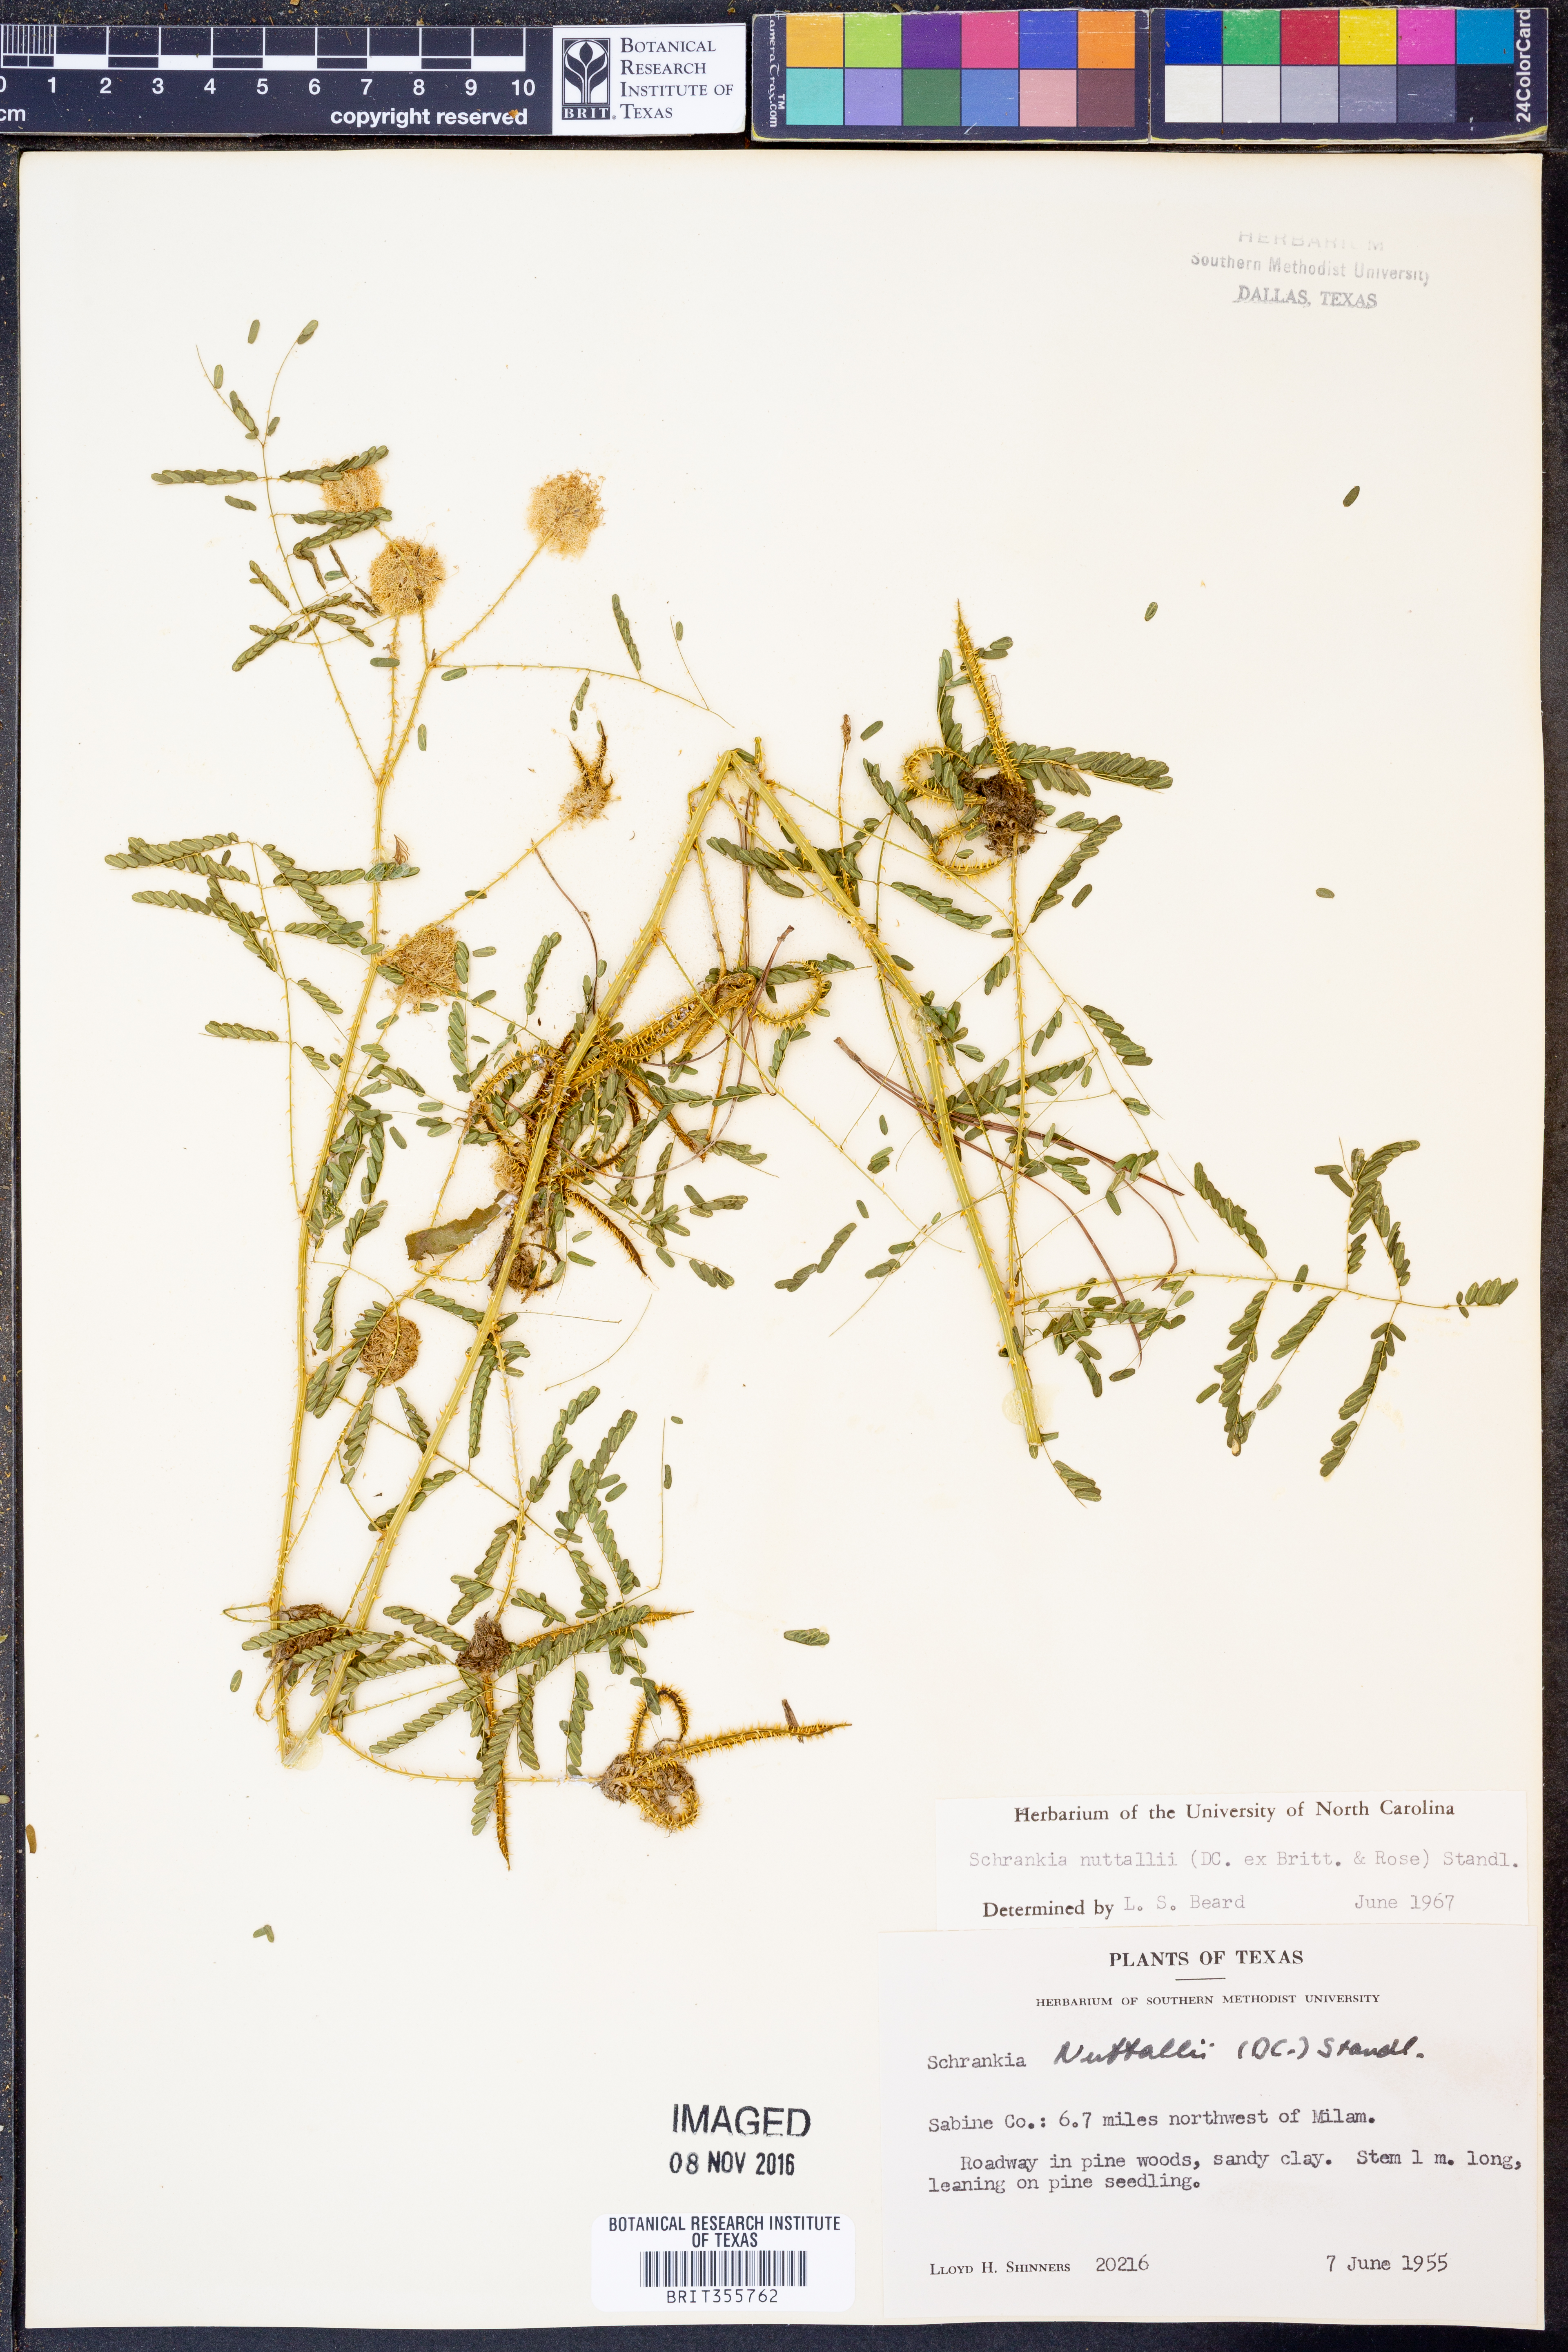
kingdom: Plantae
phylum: Tracheophyta
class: Magnoliopsida
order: Fabales
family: Fabaceae
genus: Mimosa
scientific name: Mimosa quadrivalvis
